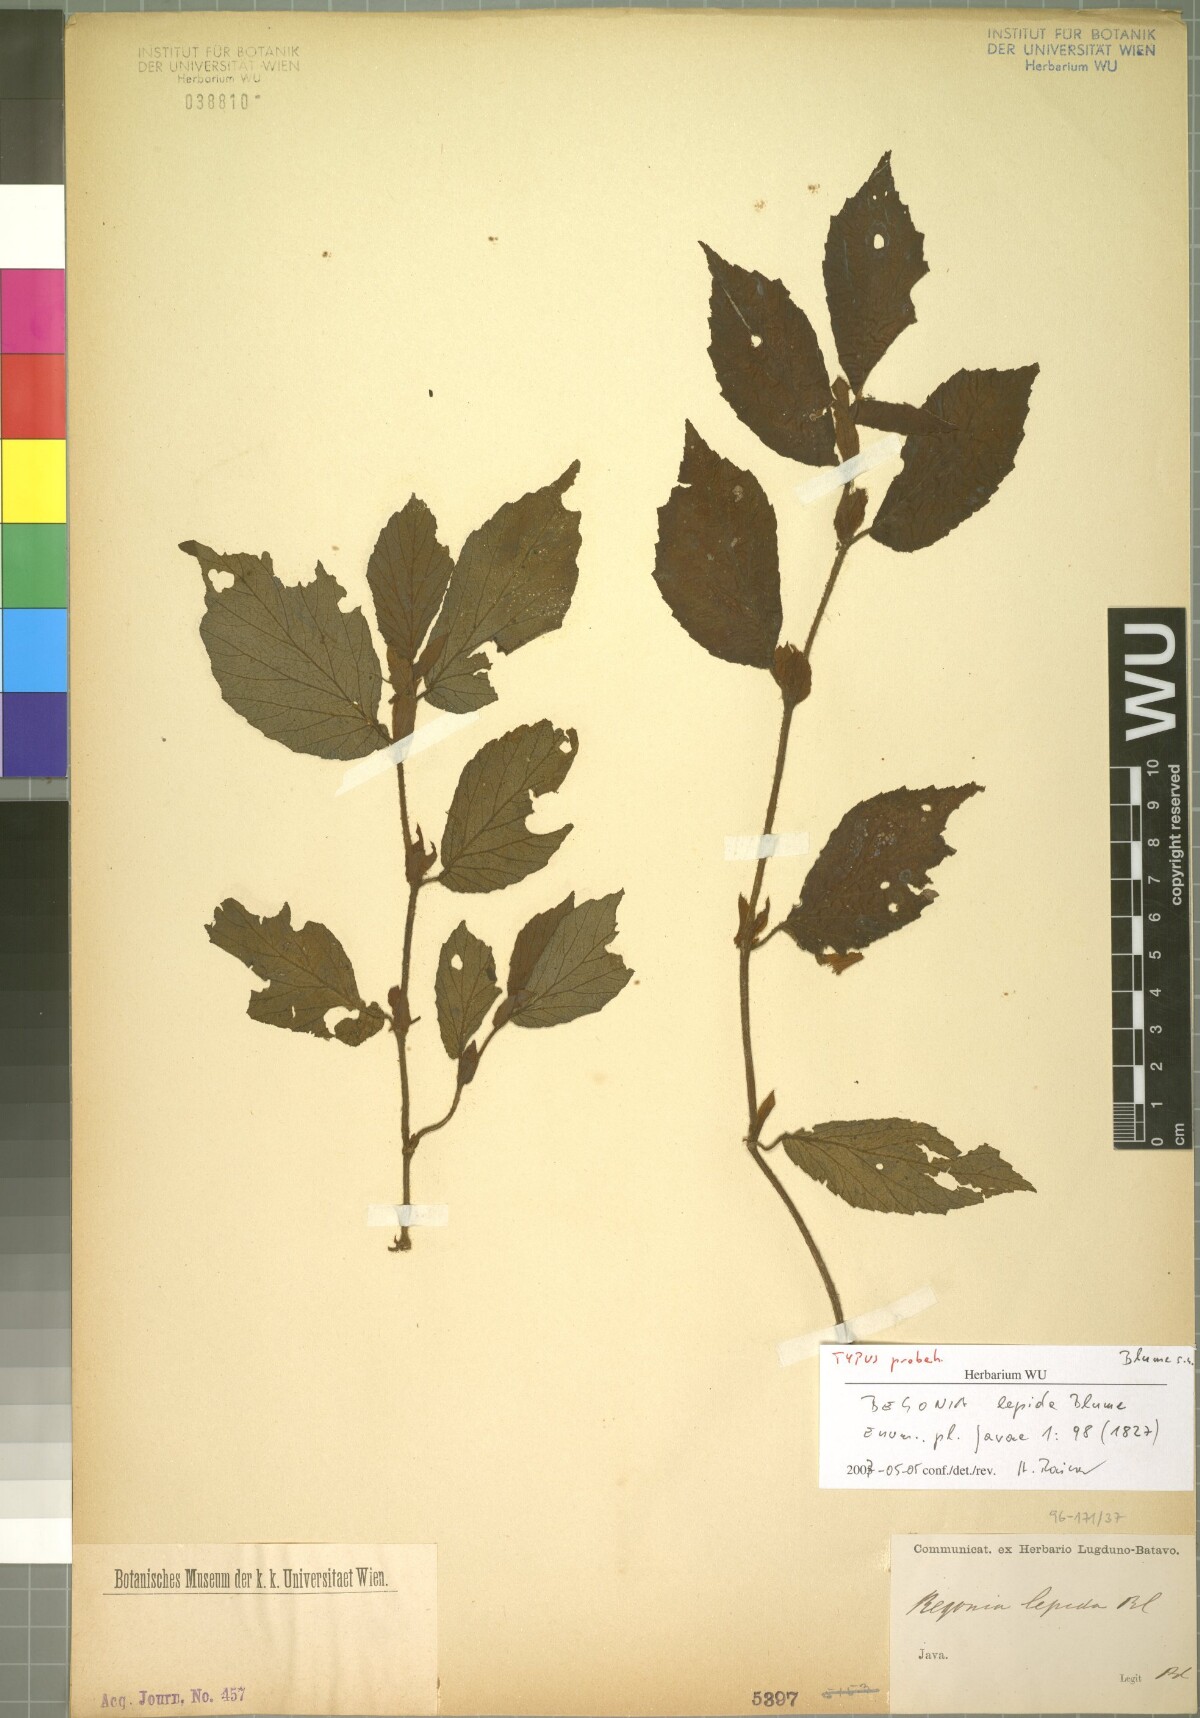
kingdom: Plantae
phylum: Tracheophyta
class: Magnoliopsida
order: Cucurbitales
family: Begoniaceae
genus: Begonia
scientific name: Begonia lepida
